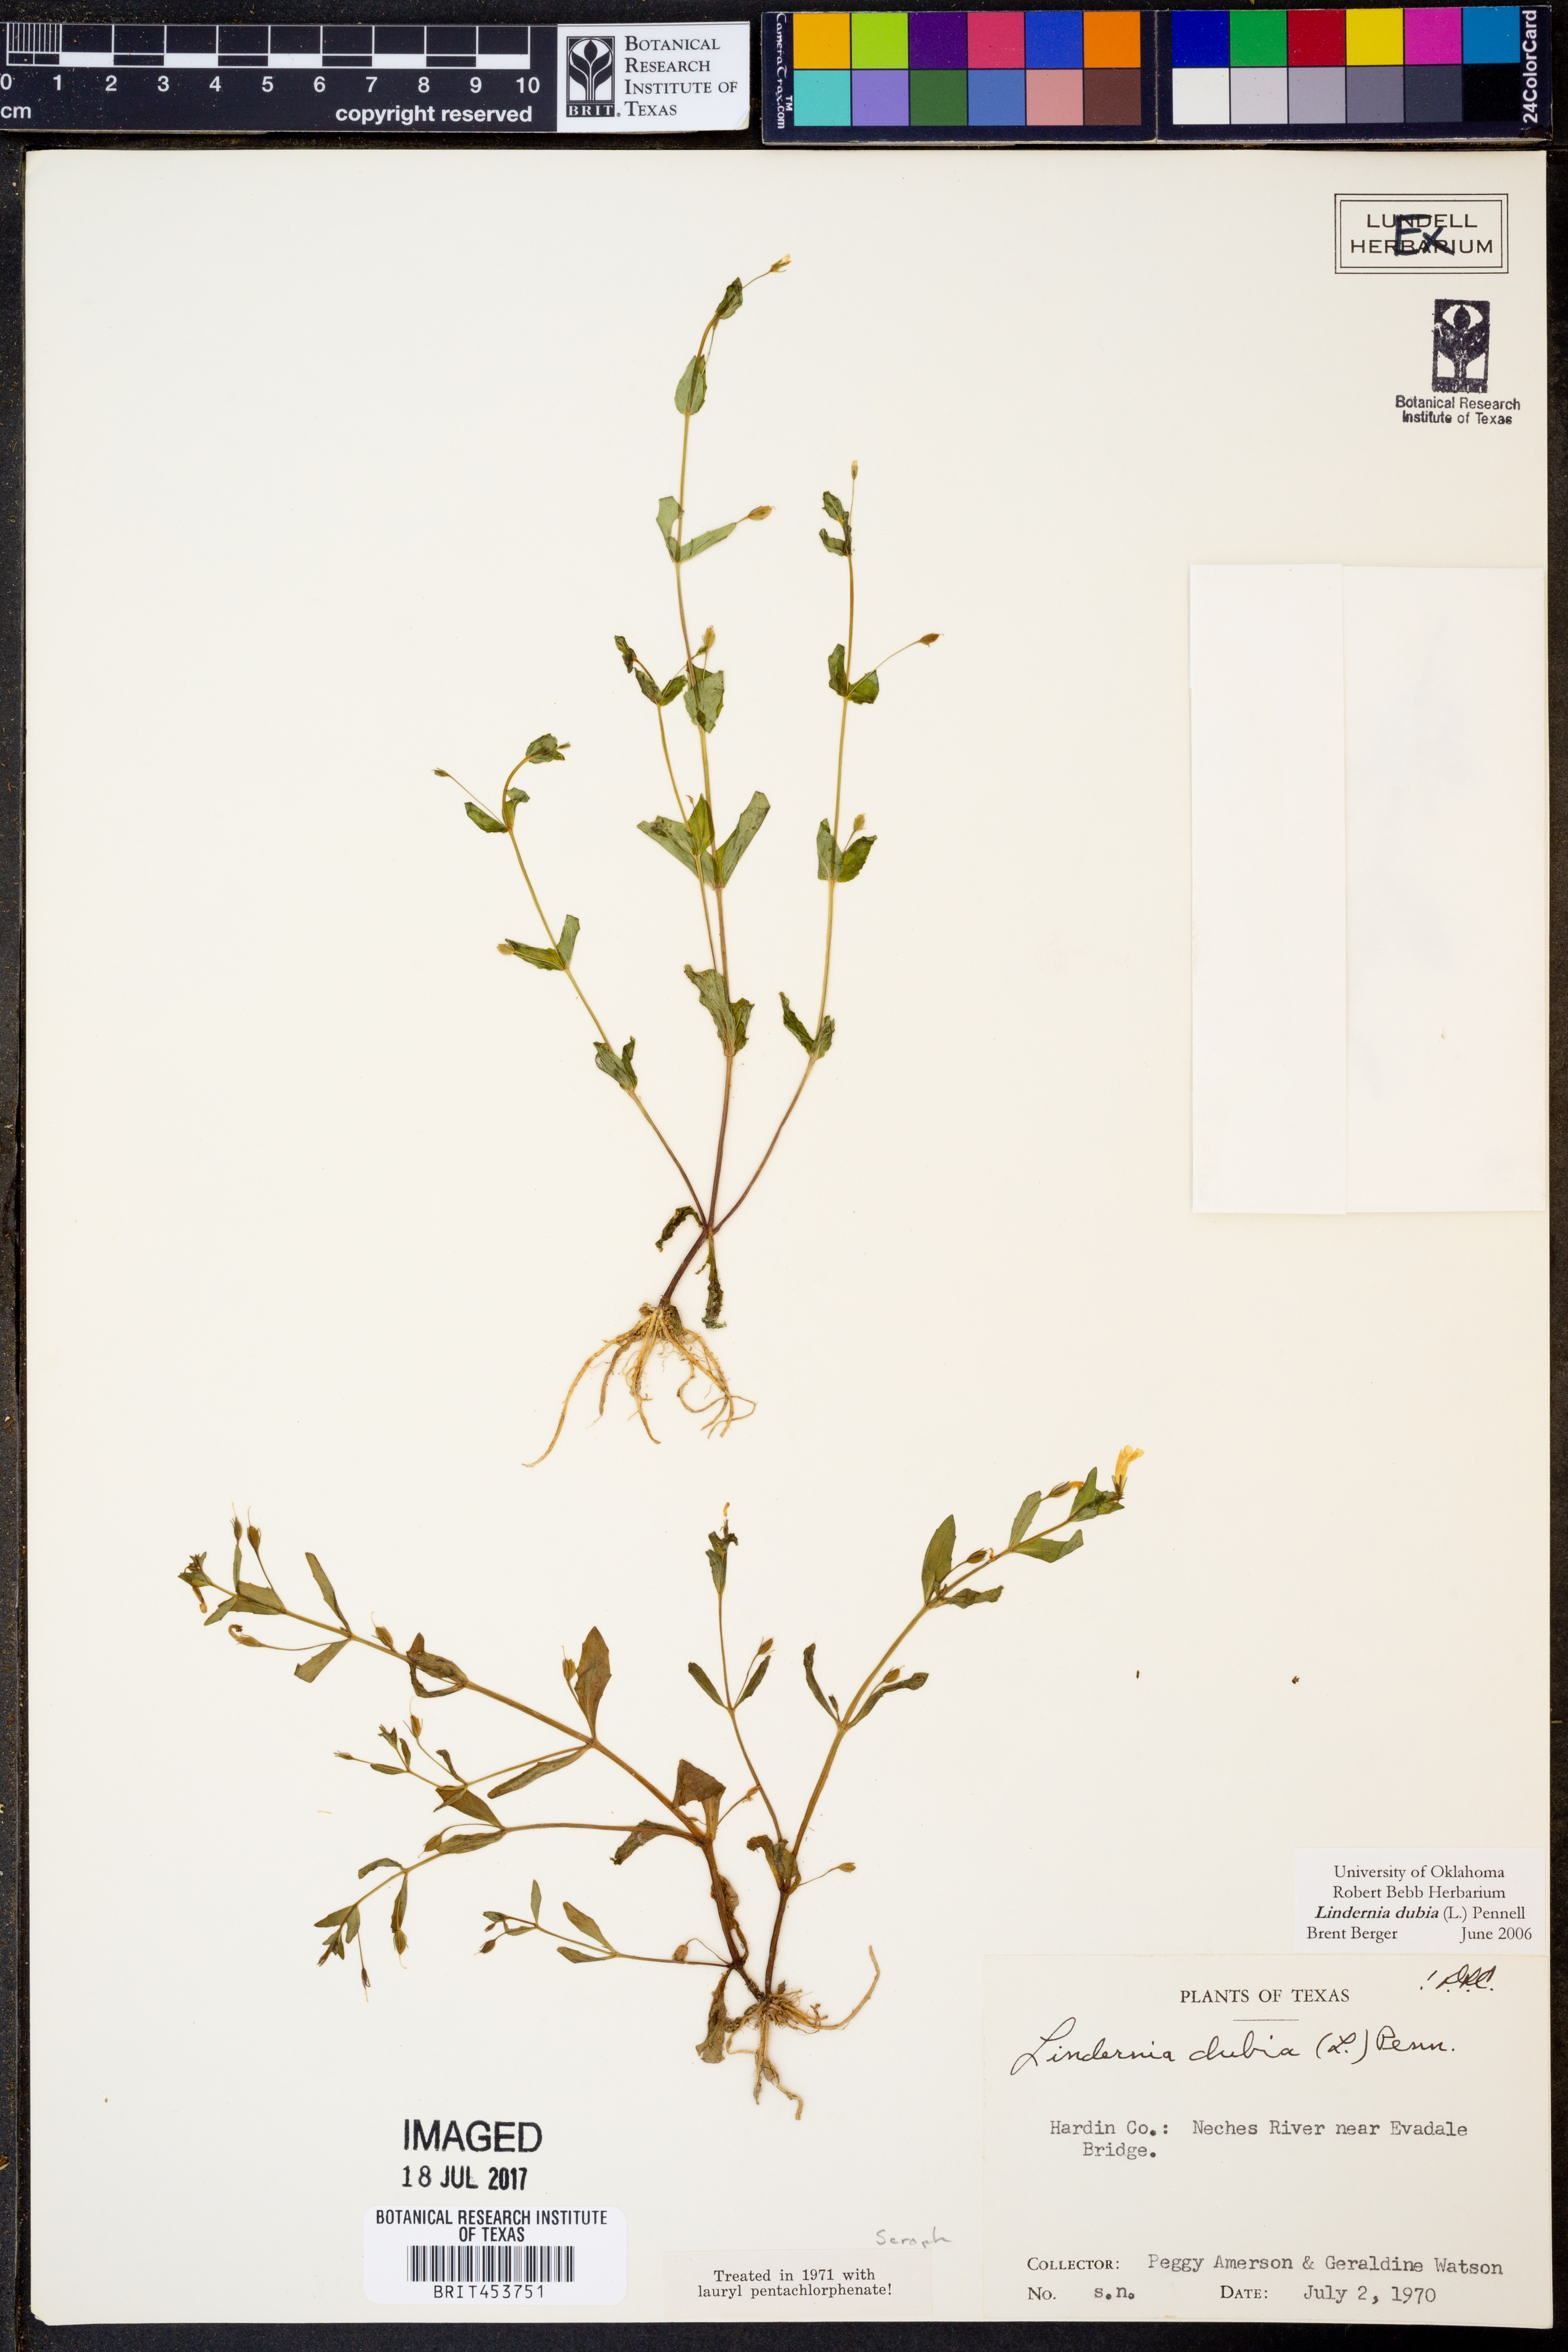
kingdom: Plantae
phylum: Tracheophyta
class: Magnoliopsida
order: Lamiales
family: Linderniaceae
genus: Lindernia
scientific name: Lindernia dubia
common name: Annual false pimpernel
